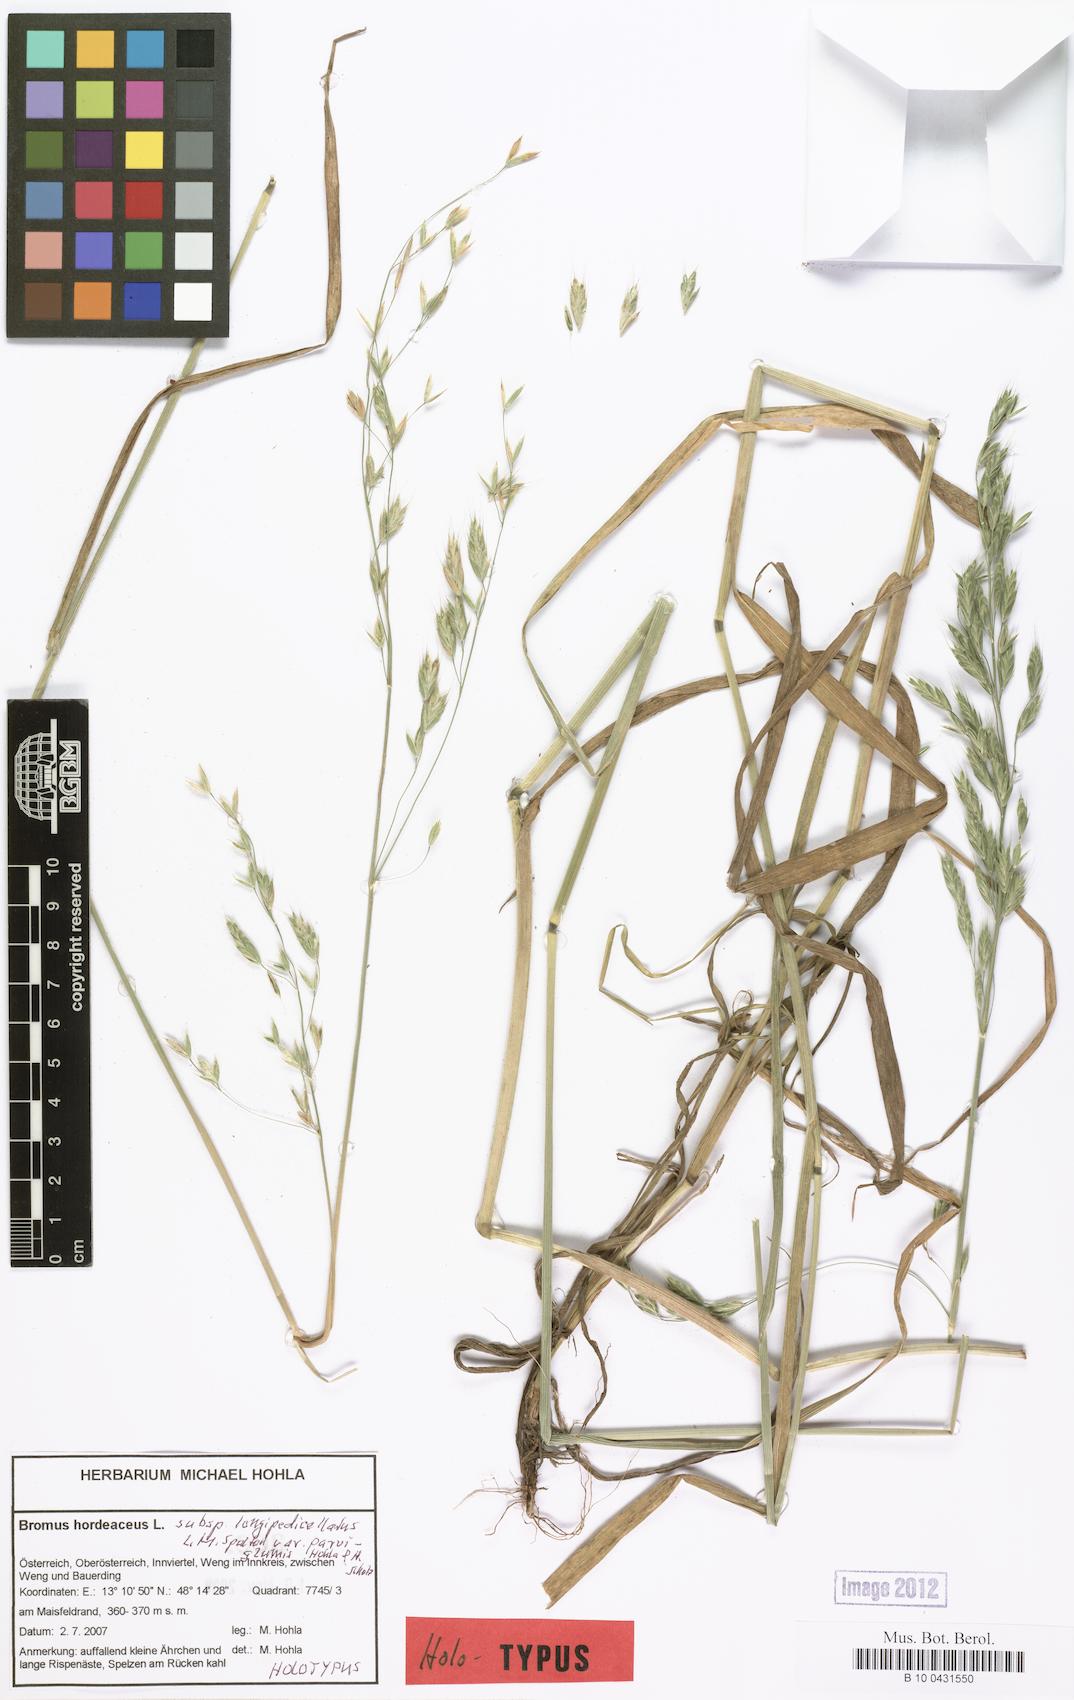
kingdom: Plantae
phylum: Tracheophyta
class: Liliopsida
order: Poales
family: Poaceae
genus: Bromus
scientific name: Bromus hordeaceus
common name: Soft brome
